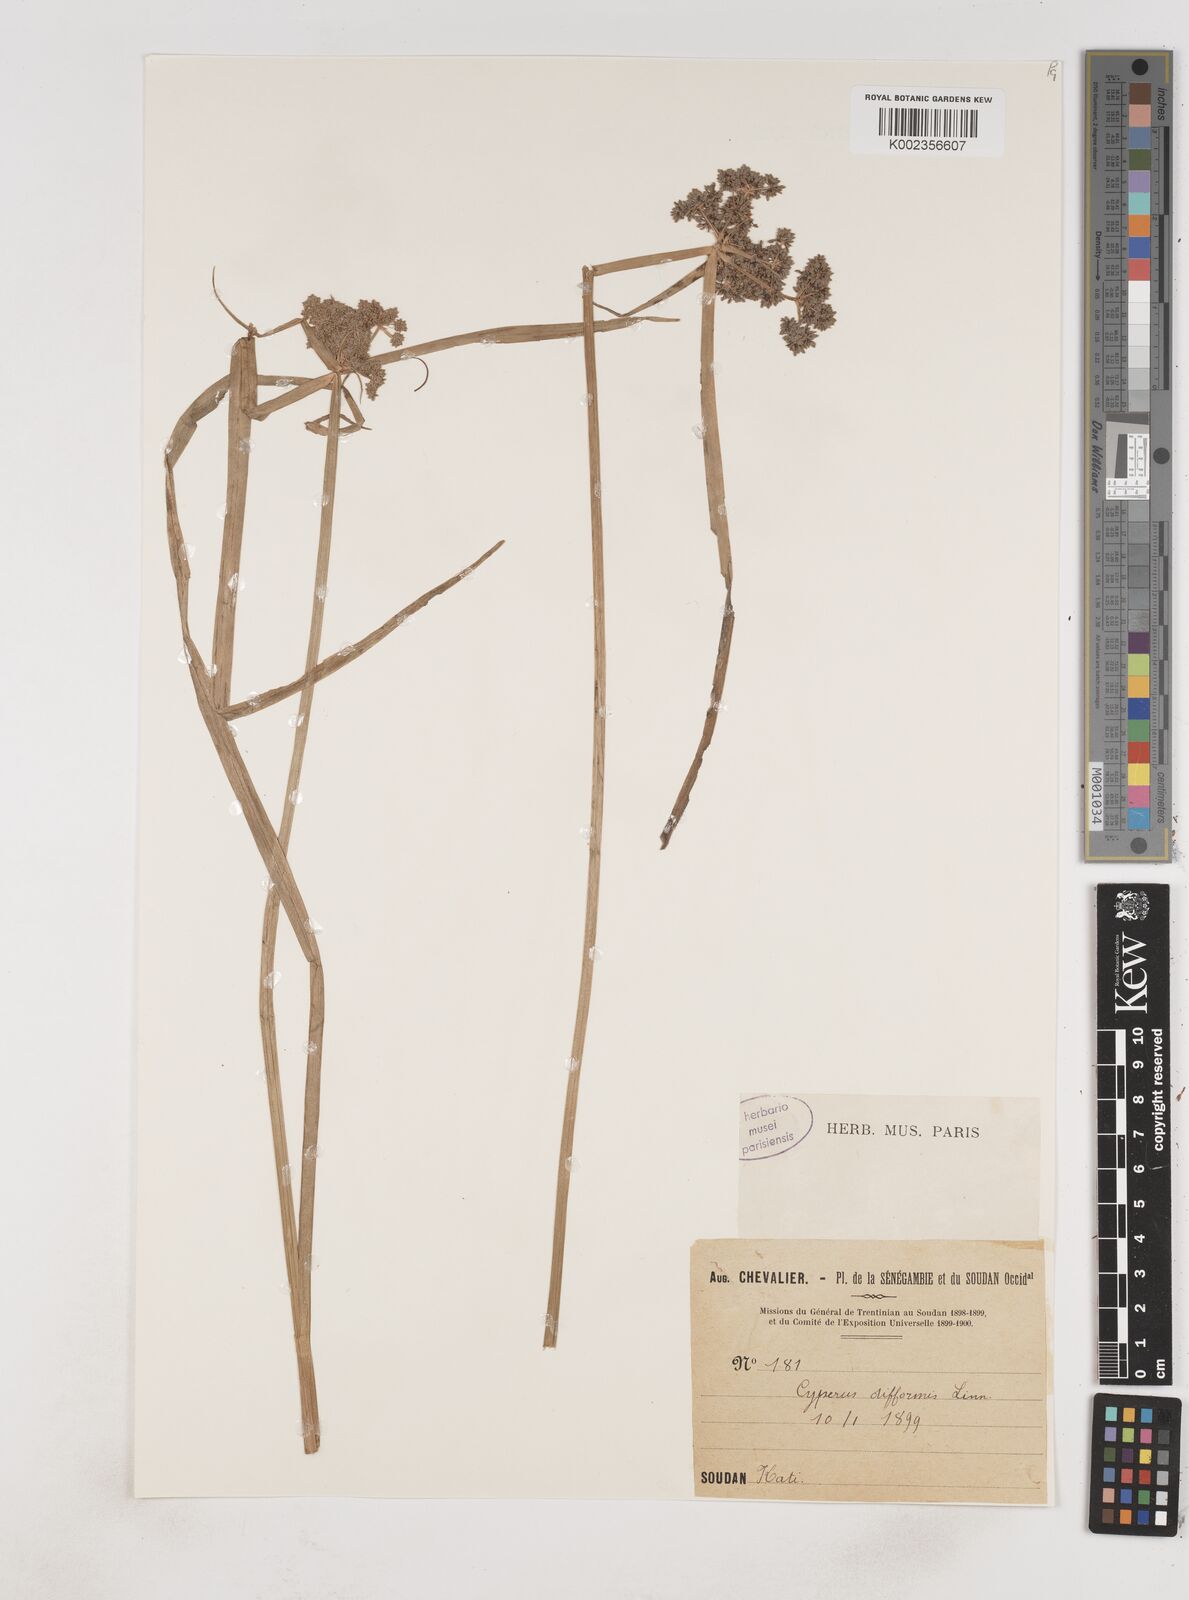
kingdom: Plantae
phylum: Tracheophyta
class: Liliopsida
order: Poales
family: Cyperaceae
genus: Cyperus
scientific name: Cyperus difformis
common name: Variable flatsedge
